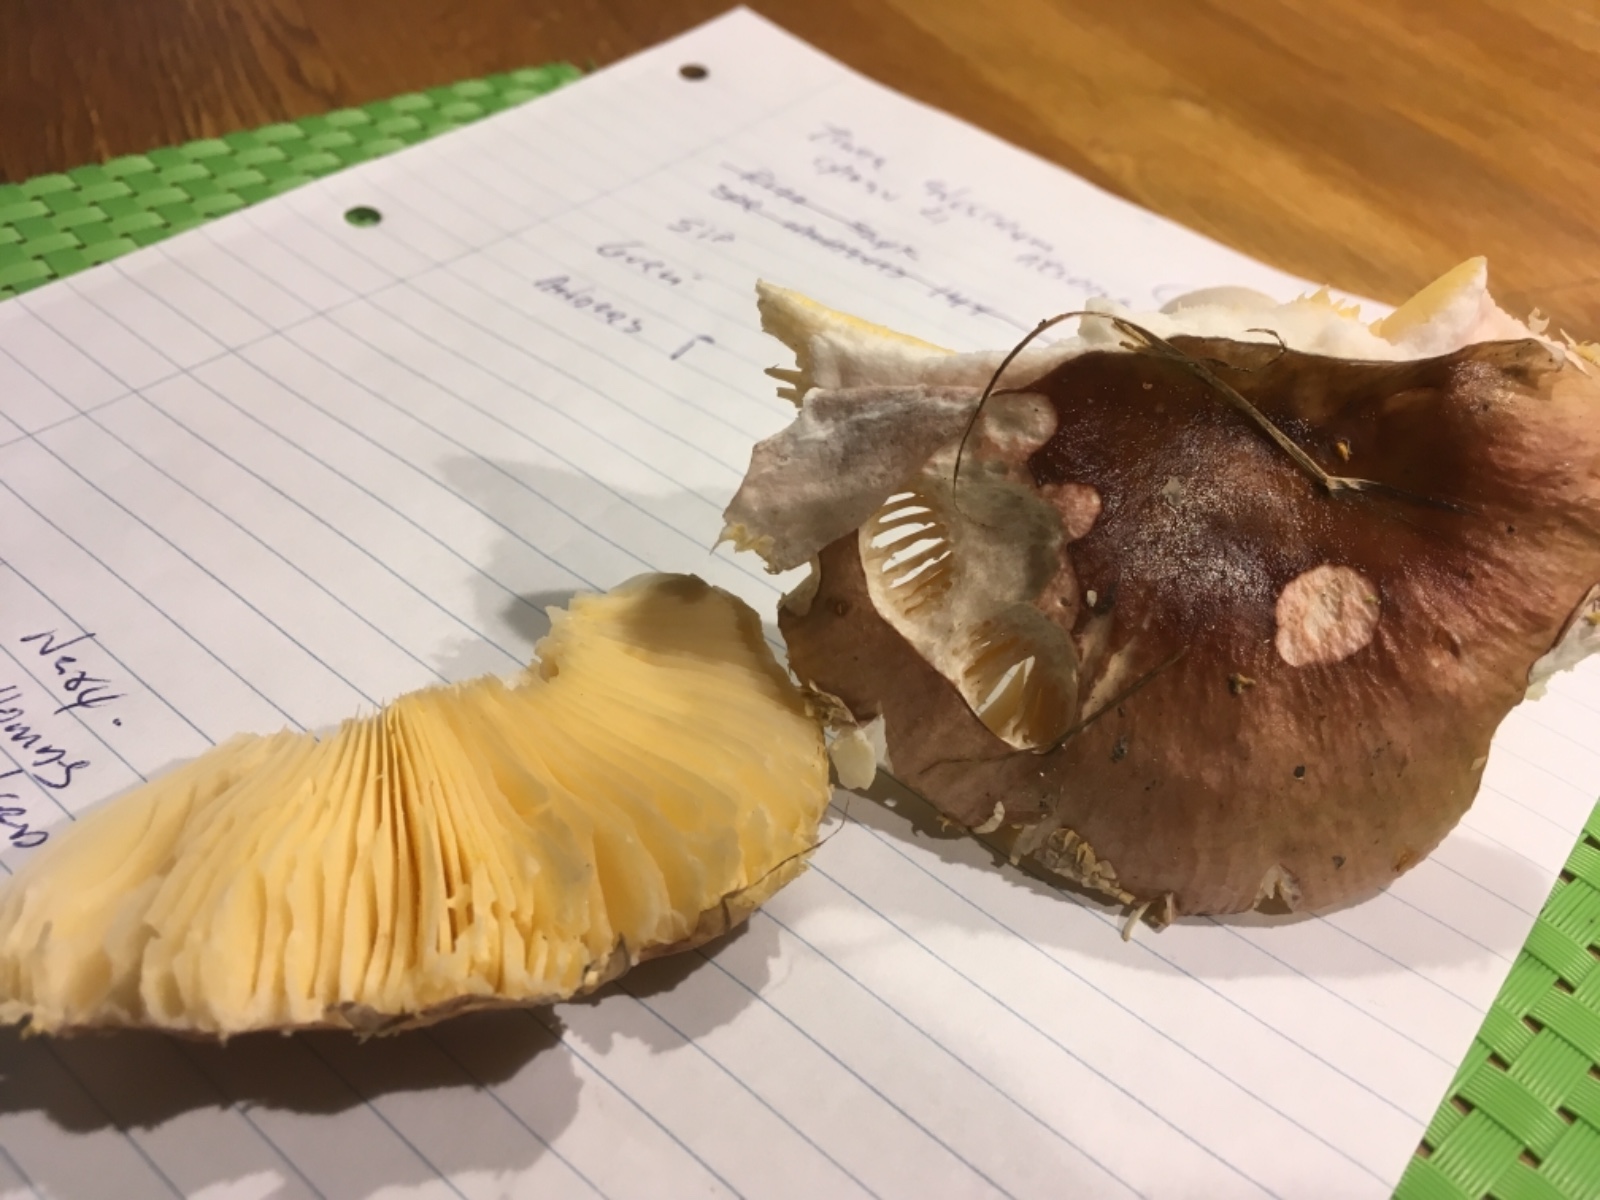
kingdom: Fungi
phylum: Basidiomycota
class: Agaricomycetes
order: Russulales
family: Russulaceae
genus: Russula
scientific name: Russula cessans
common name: fyrre-skørhat
